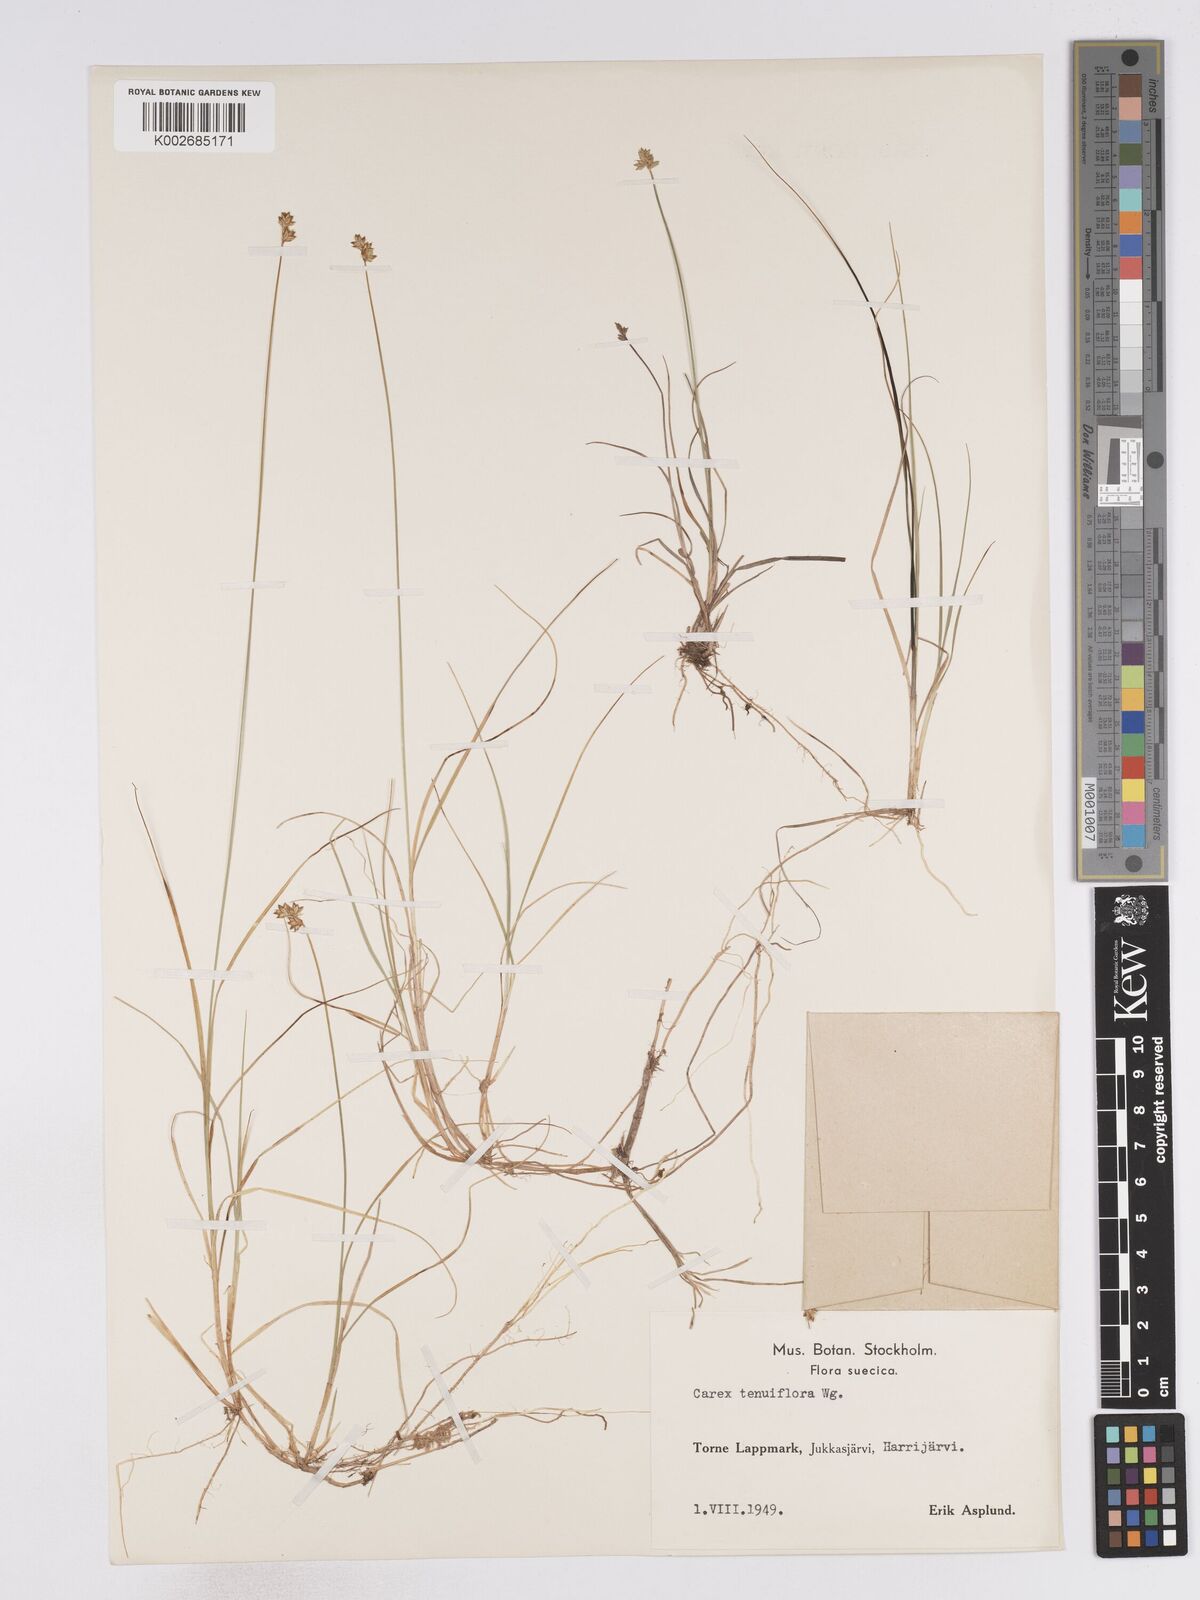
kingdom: Plantae
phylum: Tracheophyta
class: Liliopsida
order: Poales
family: Cyperaceae
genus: Carex
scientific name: Carex tenuiflora
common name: Sparse-flowered sedge
